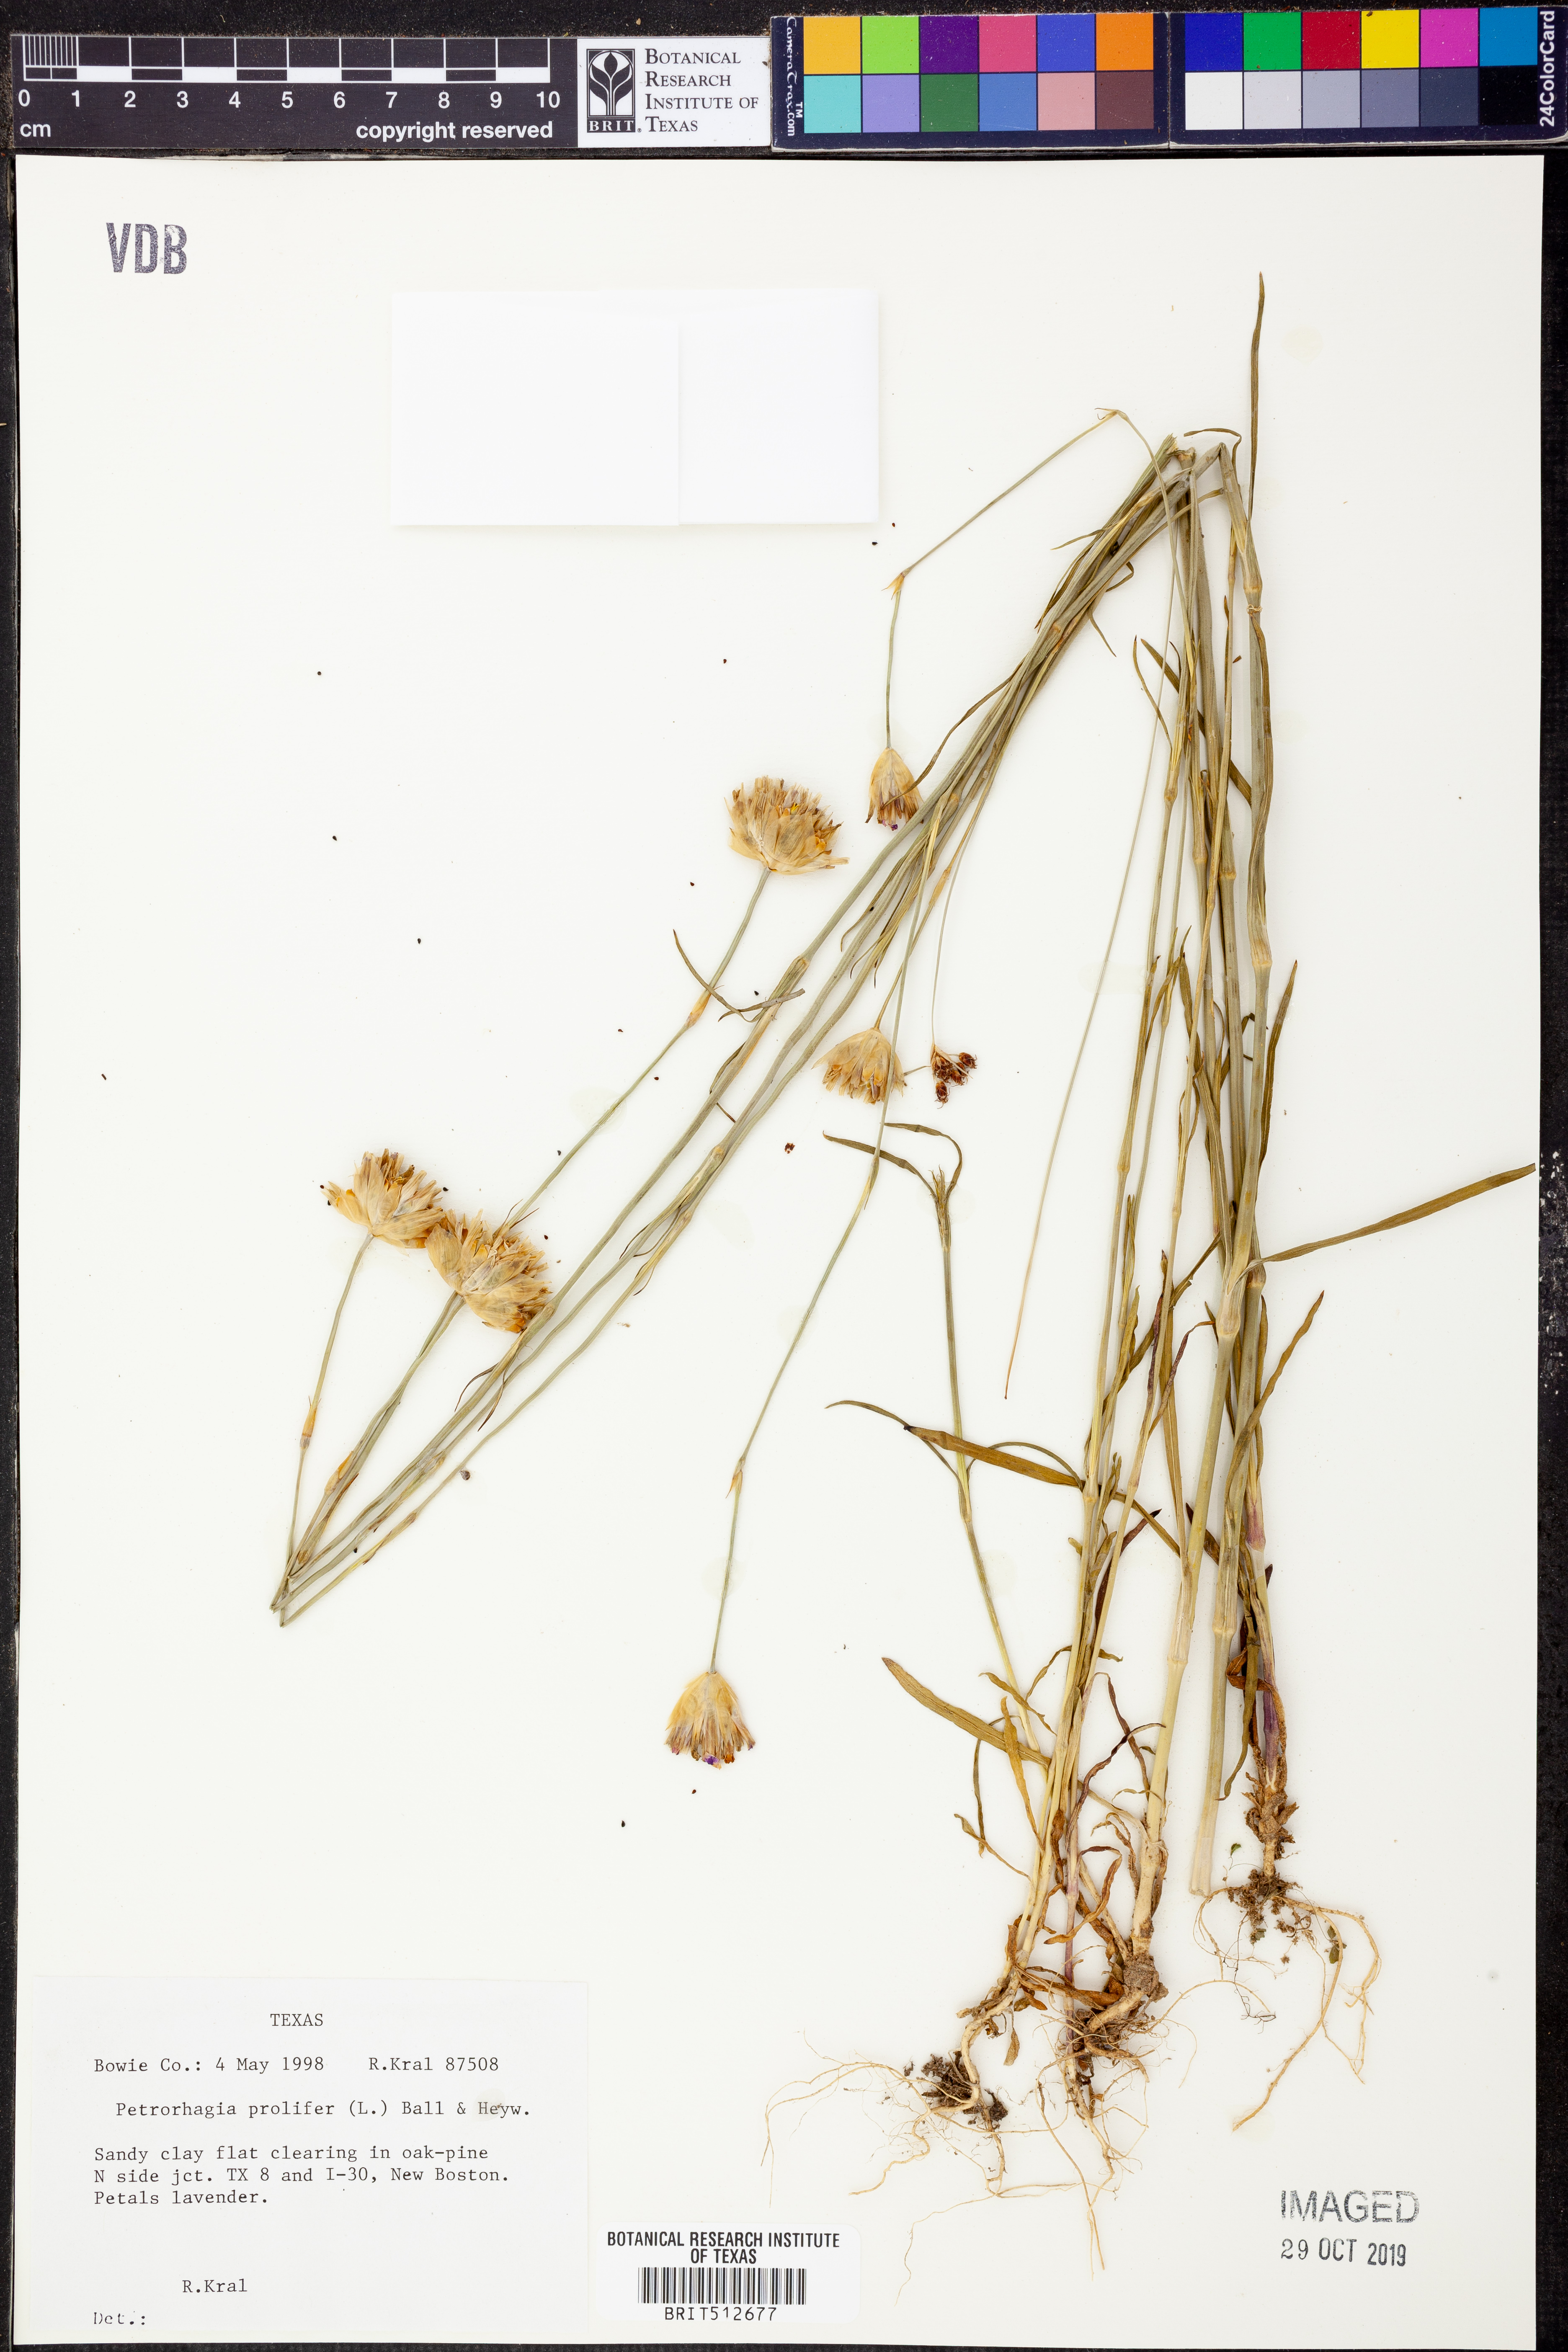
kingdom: Plantae
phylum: Tracheophyta
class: Magnoliopsida
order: Caryophyllales
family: Caryophyllaceae
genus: Petrorhagia
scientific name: Petrorhagia prolifera
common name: Proliferous pink
